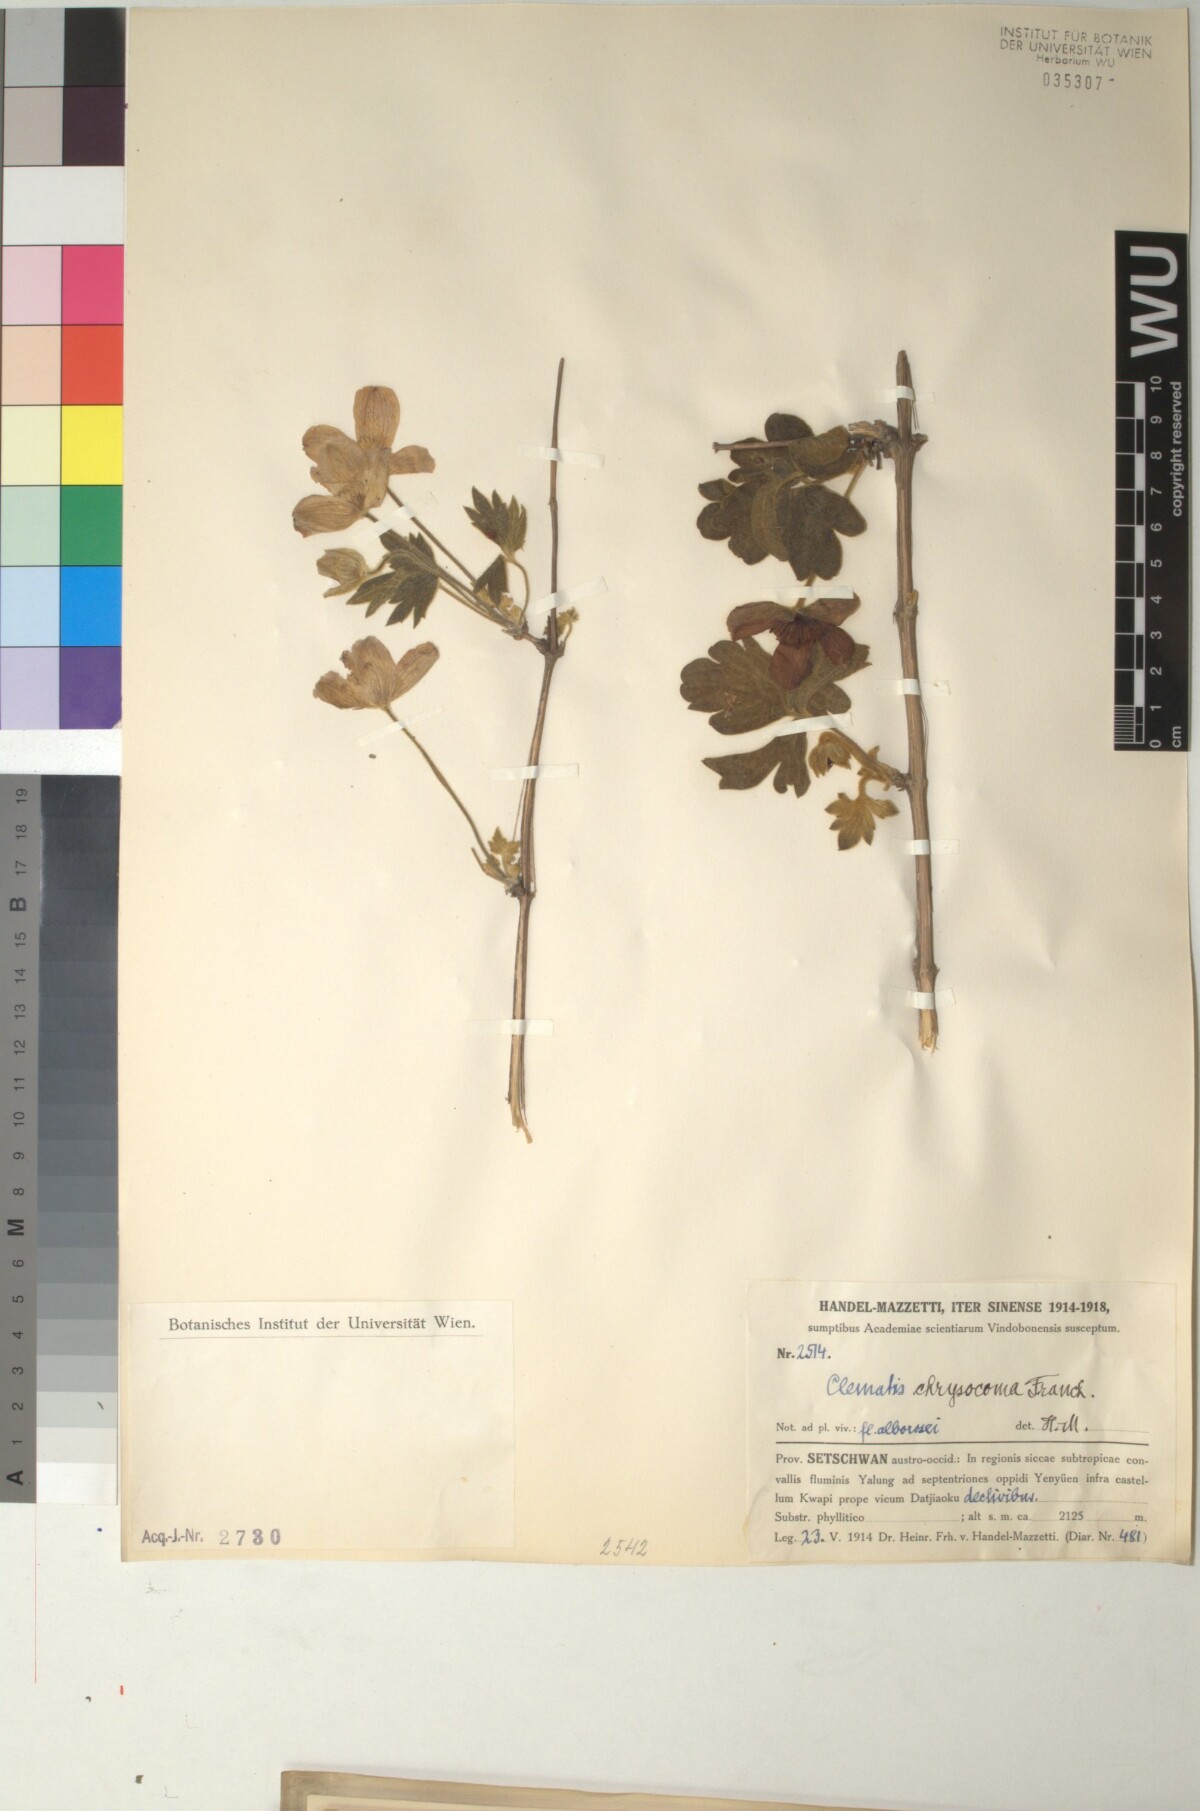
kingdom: Plantae
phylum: Tracheophyta
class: Magnoliopsida
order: Ranunculales
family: Ranunculaceae
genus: Clematis
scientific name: Clematis chrysocoma
